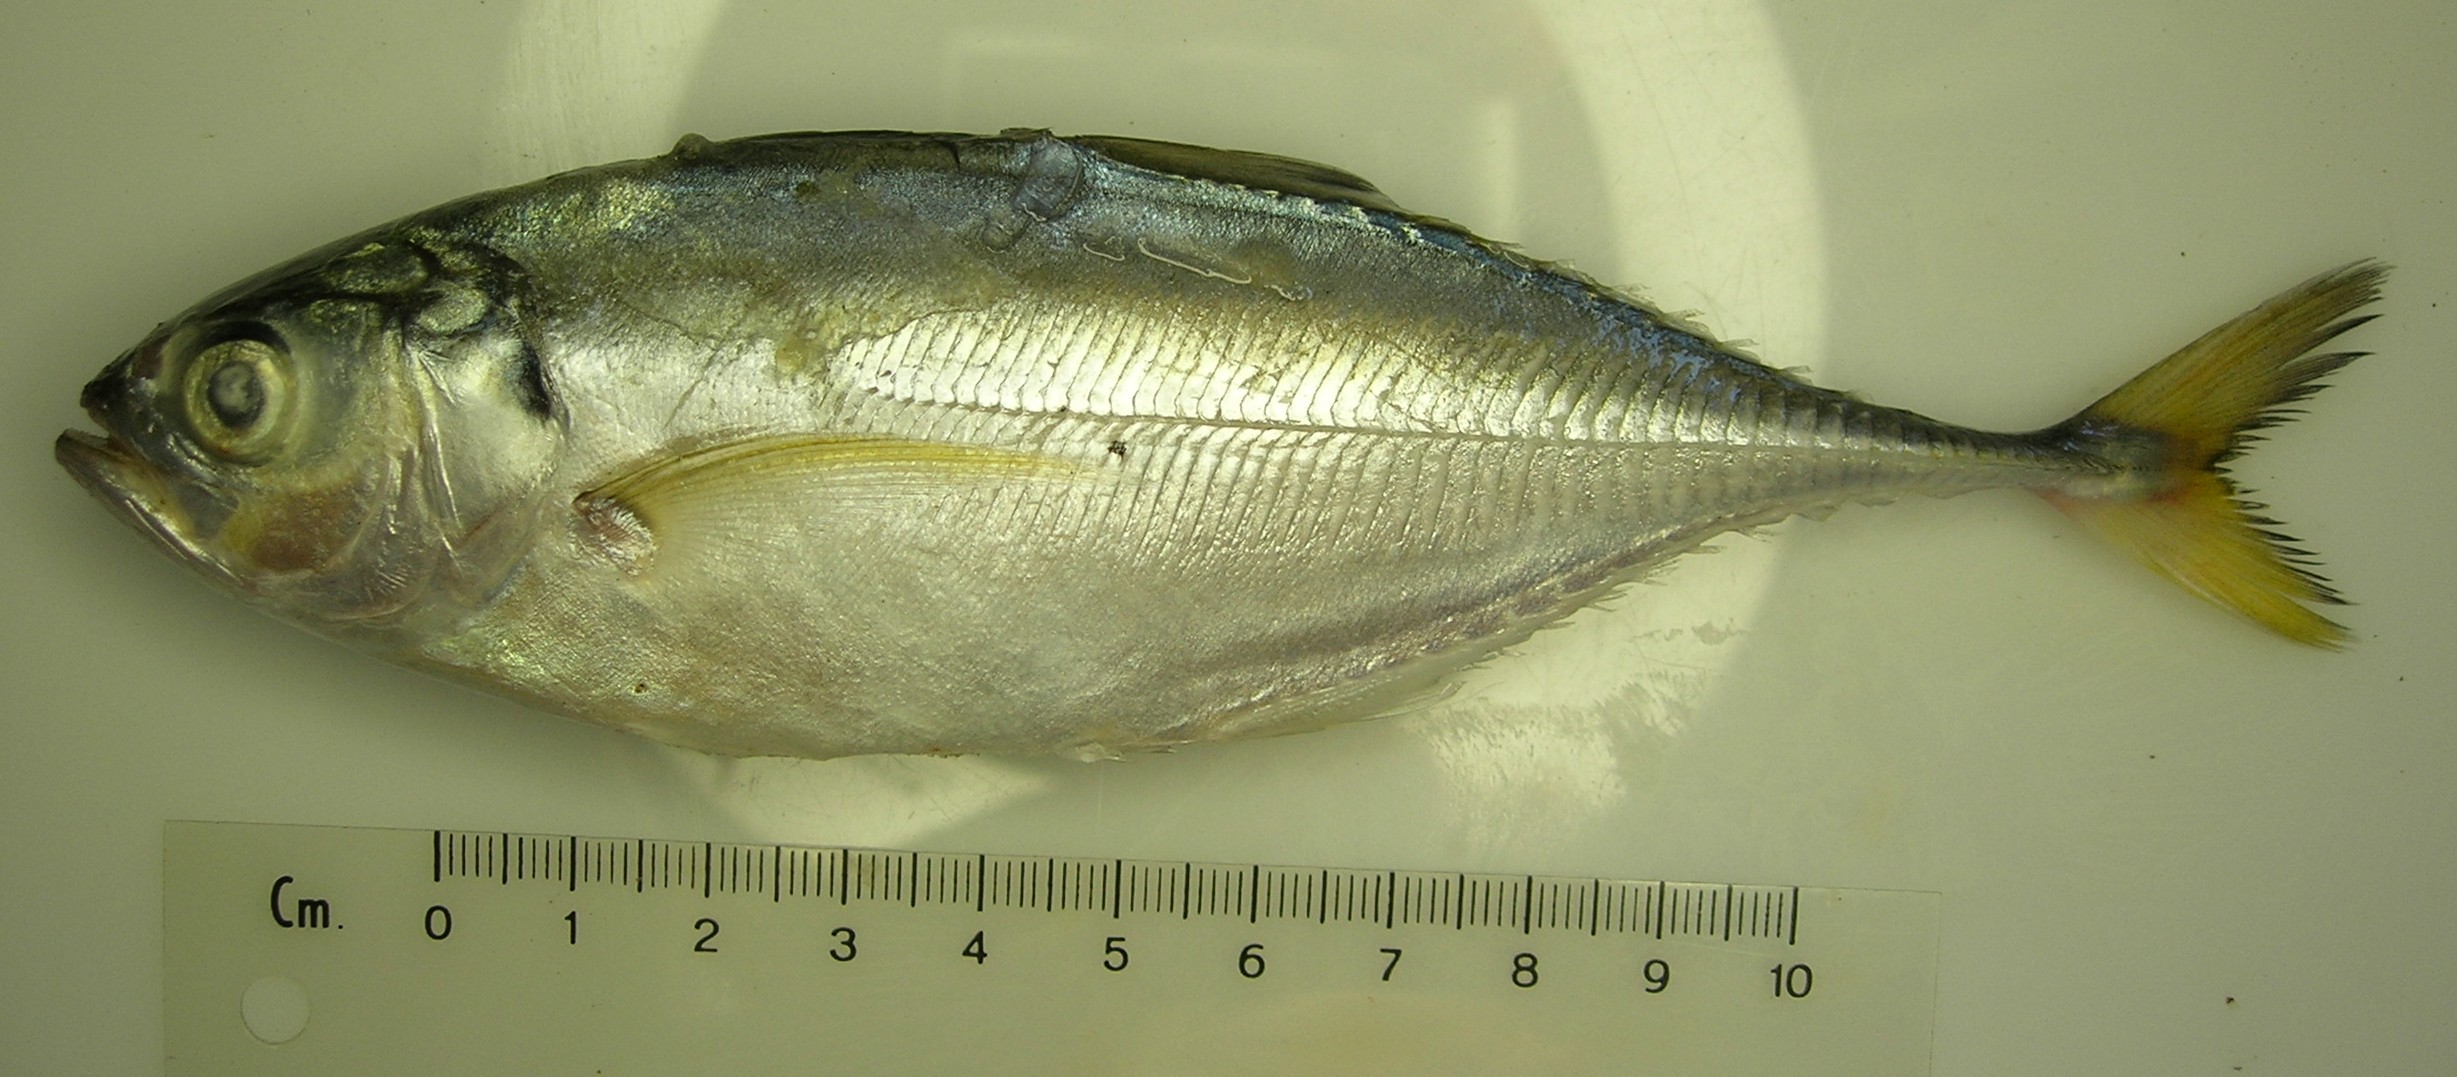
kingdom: Animalia
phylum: Chordata
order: Perciformes
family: Carangidae
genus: Megalaspis
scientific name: Megalaspis cordyla
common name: Torpedo scad
